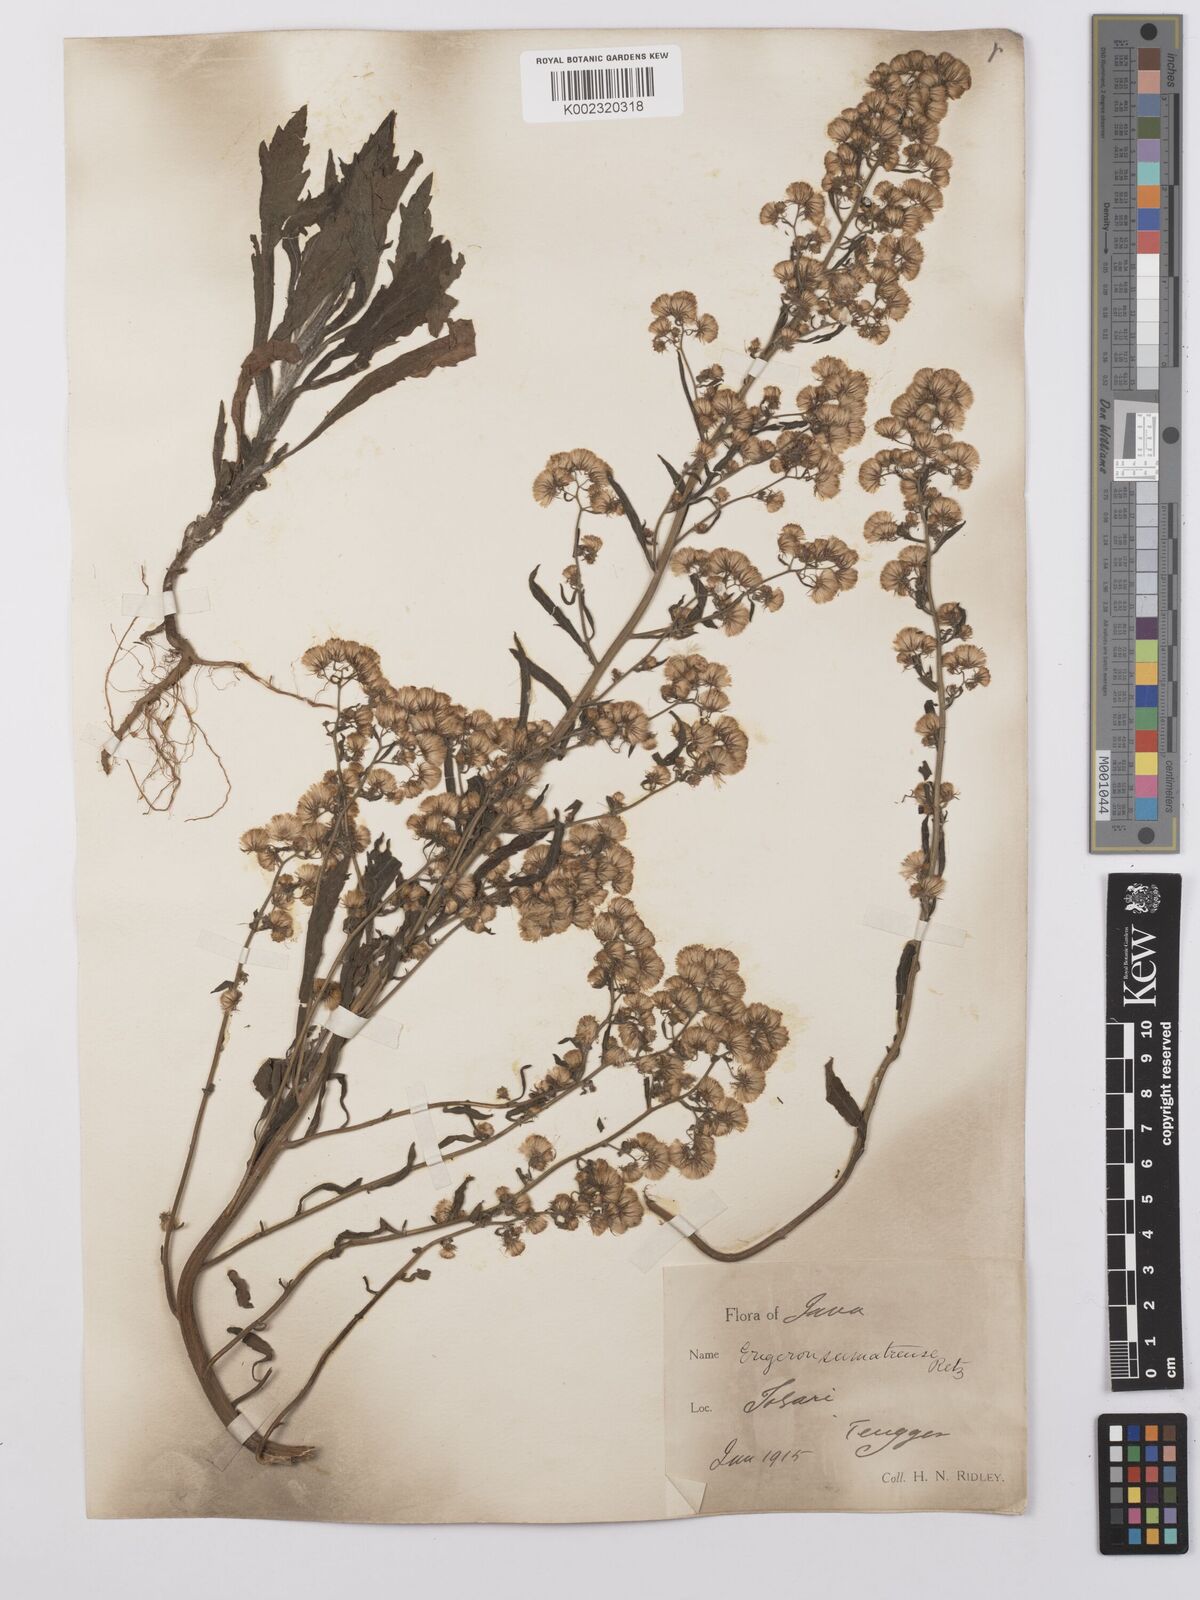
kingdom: Plantae
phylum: Tracheophyta
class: Magnoliopsida
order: Asterales
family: Asteraceae
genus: Erigeron
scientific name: Erigeron sumatrensis
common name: Daisy
